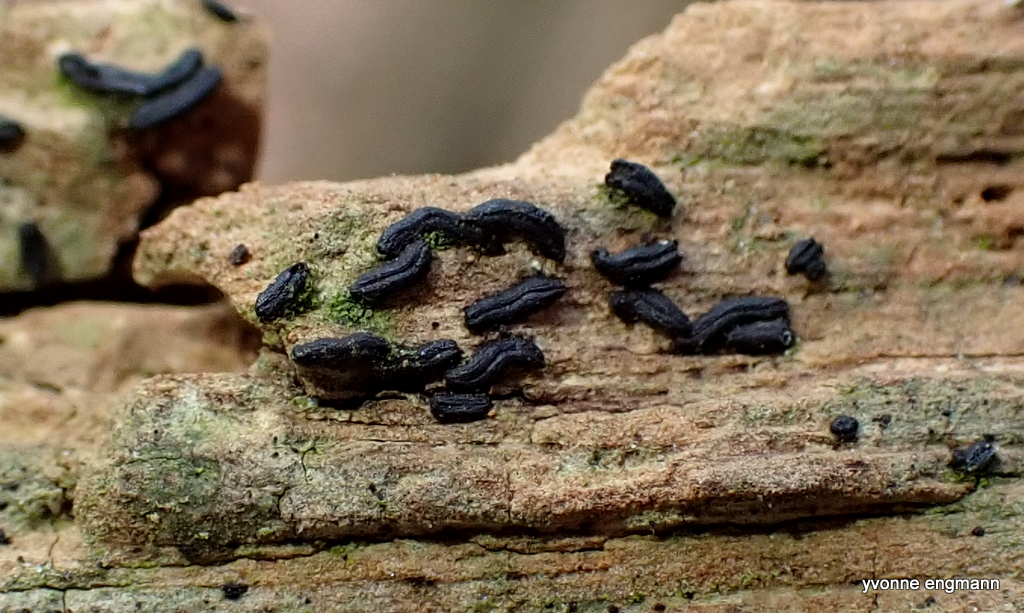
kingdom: Fungi
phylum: Ascomycota
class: Dothideomycetes
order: Hysteriales
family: Hysteriaceae
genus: Hysterium
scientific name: Hysterium
